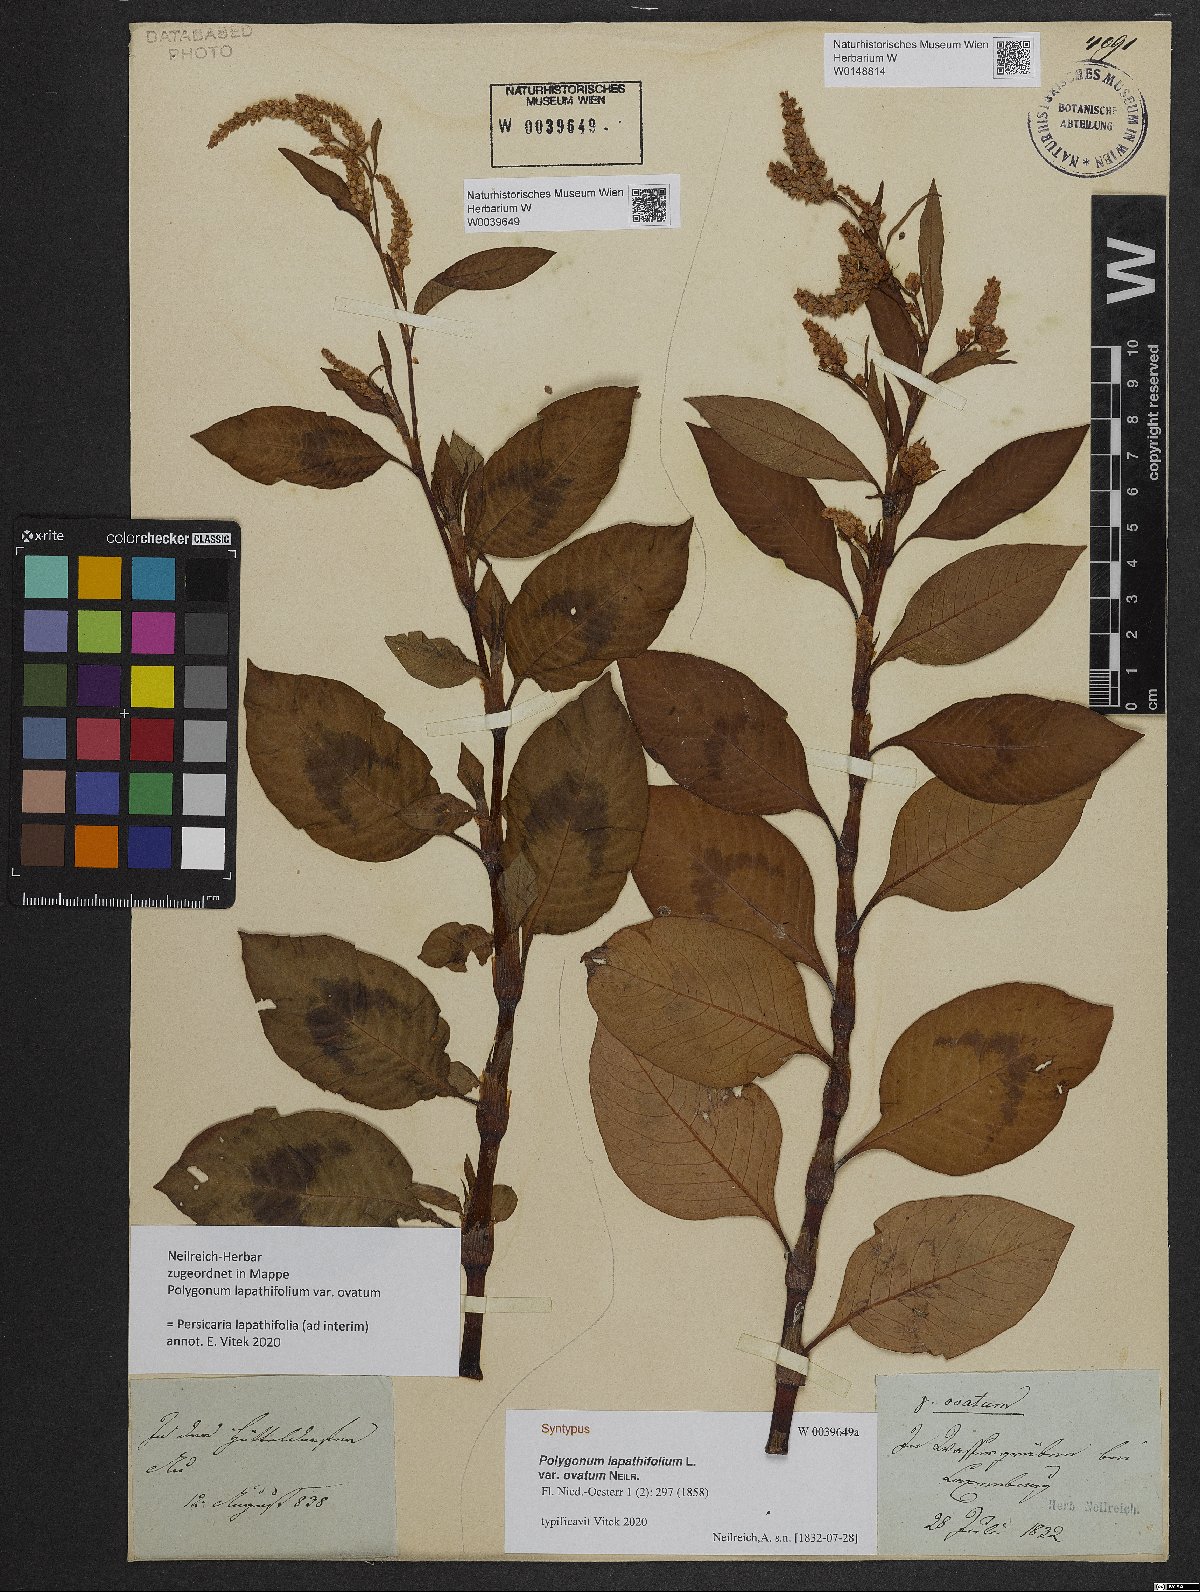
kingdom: Plantae
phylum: Tracheophyta
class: Magnoliopsida
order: Caryophyllales
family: Polygonaceae
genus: Persicaria
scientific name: Persicaria lapathifolia
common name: Curlytop knotweed
